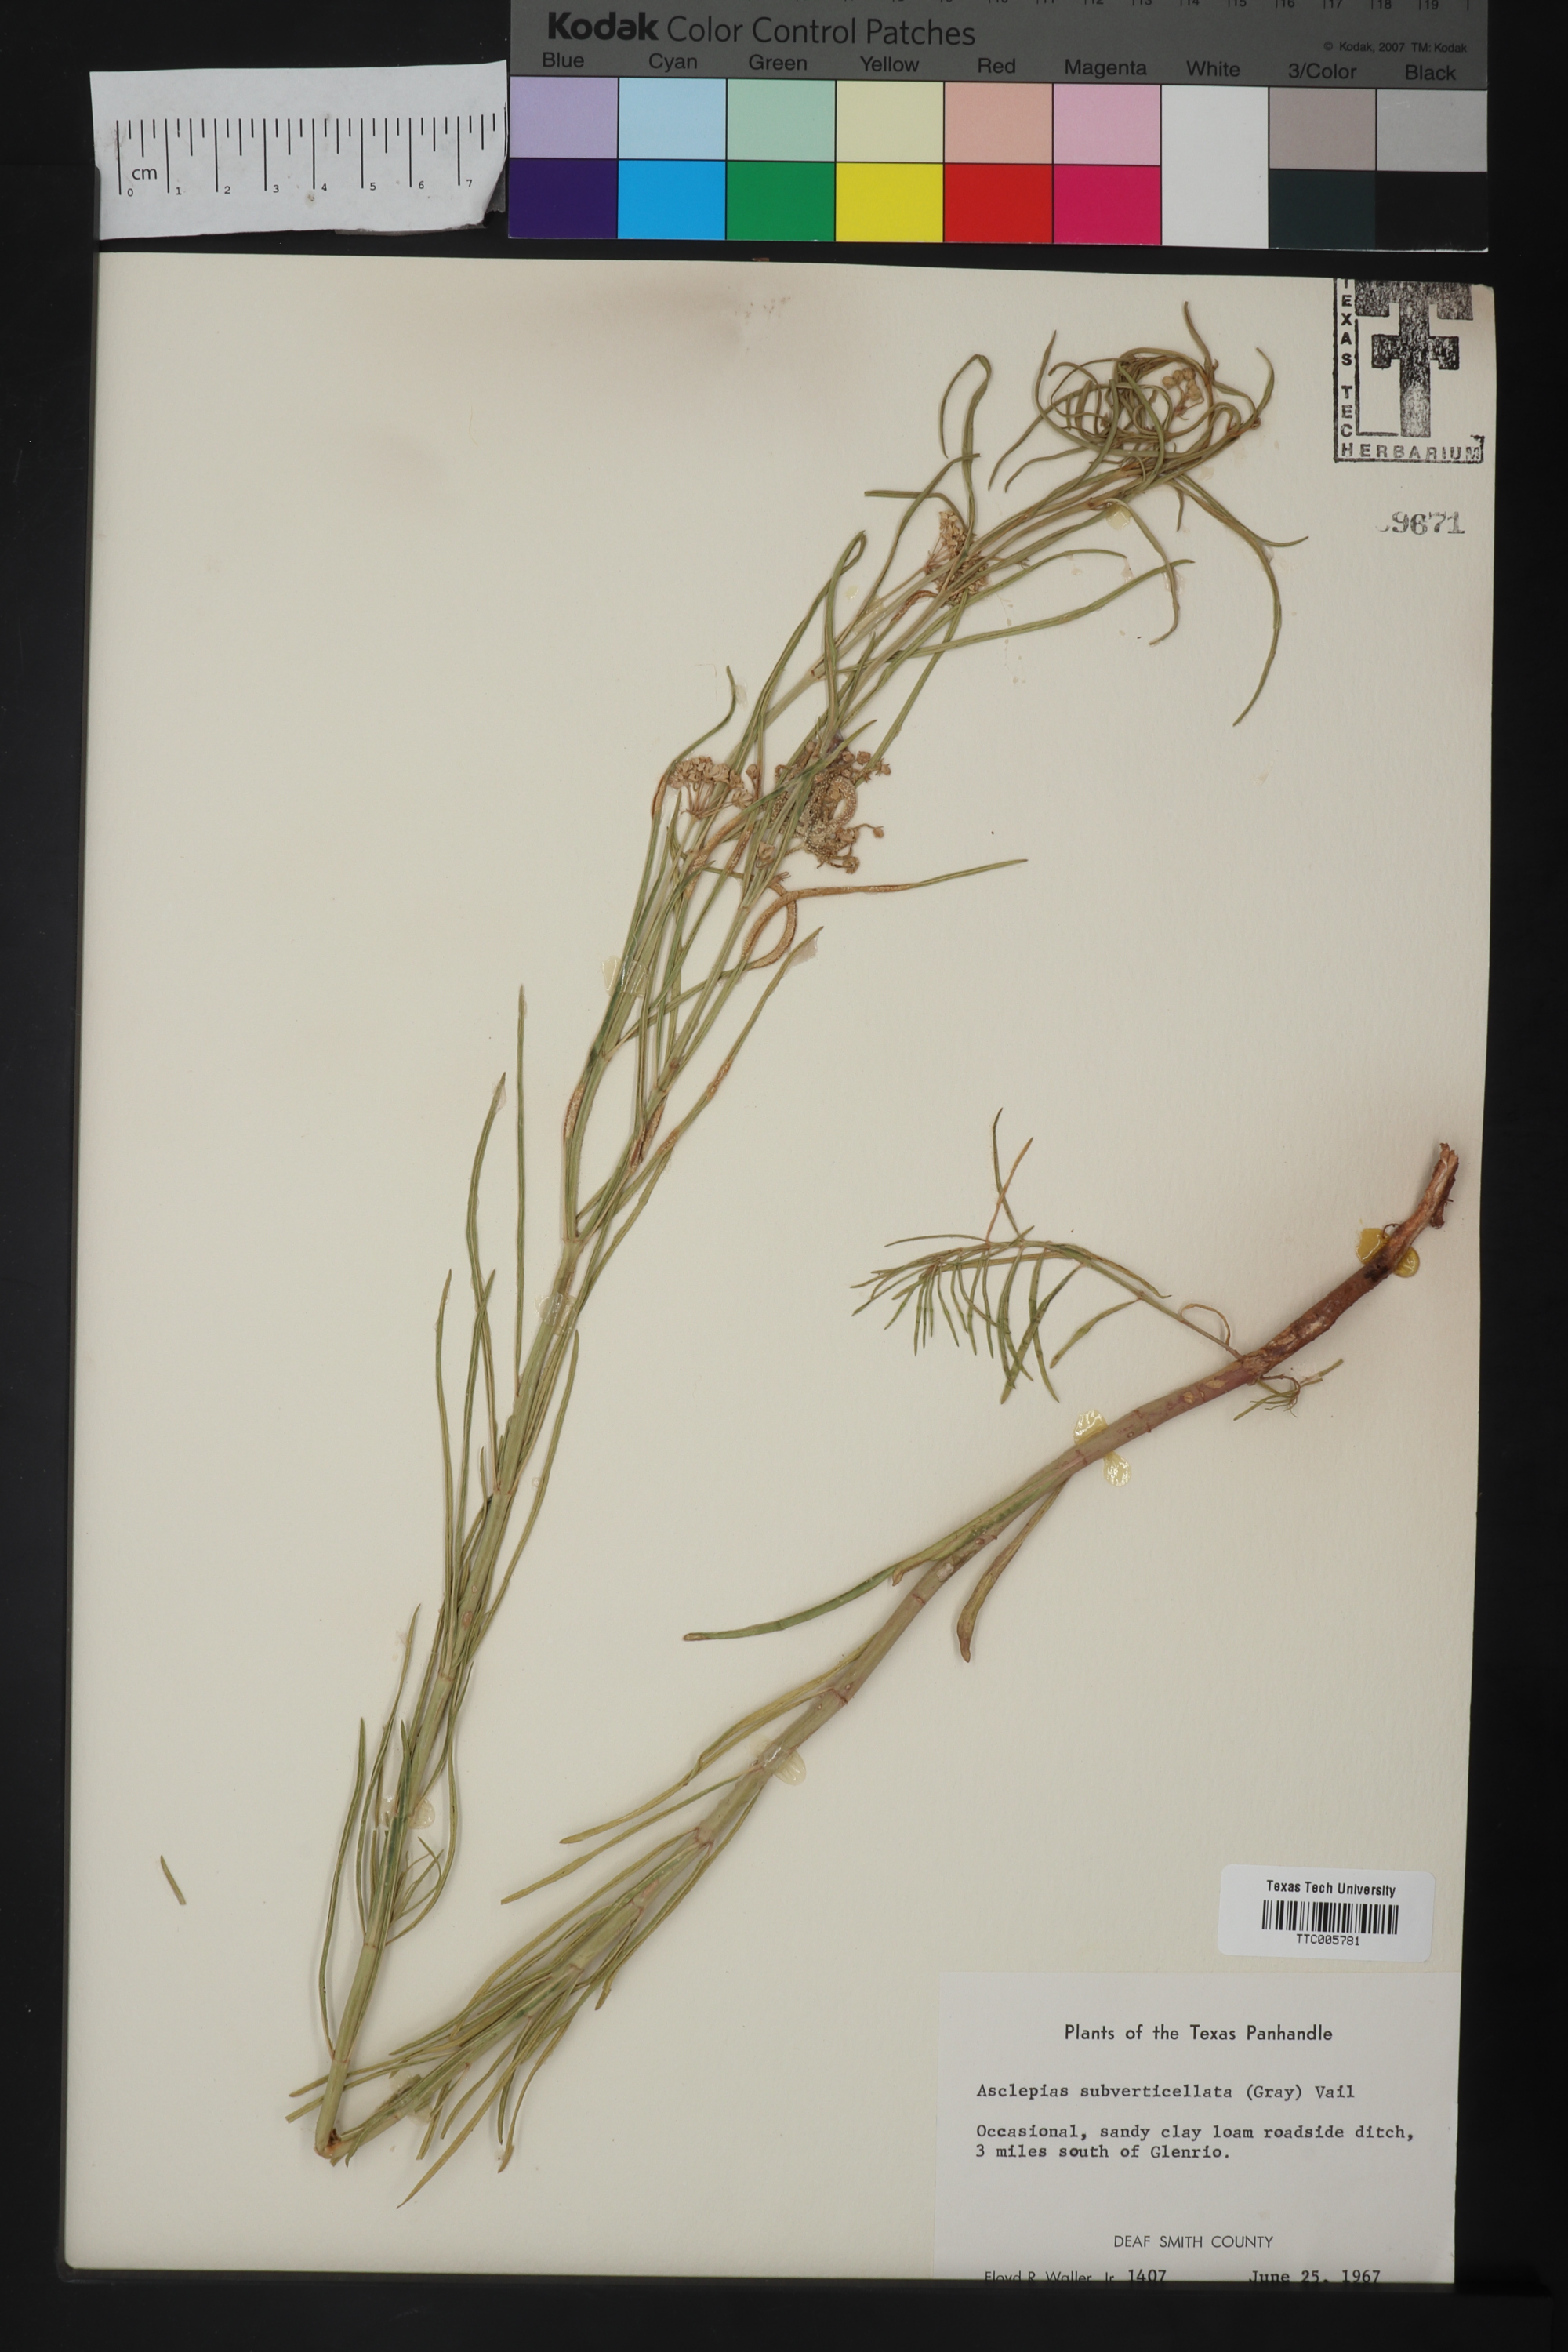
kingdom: Plantae
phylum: Tracheophyta
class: Magnoliopsida
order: Gentianales
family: Apocynaceae
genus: Asclepias
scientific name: Asclepias subverticillata
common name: Horsetail milkweed
